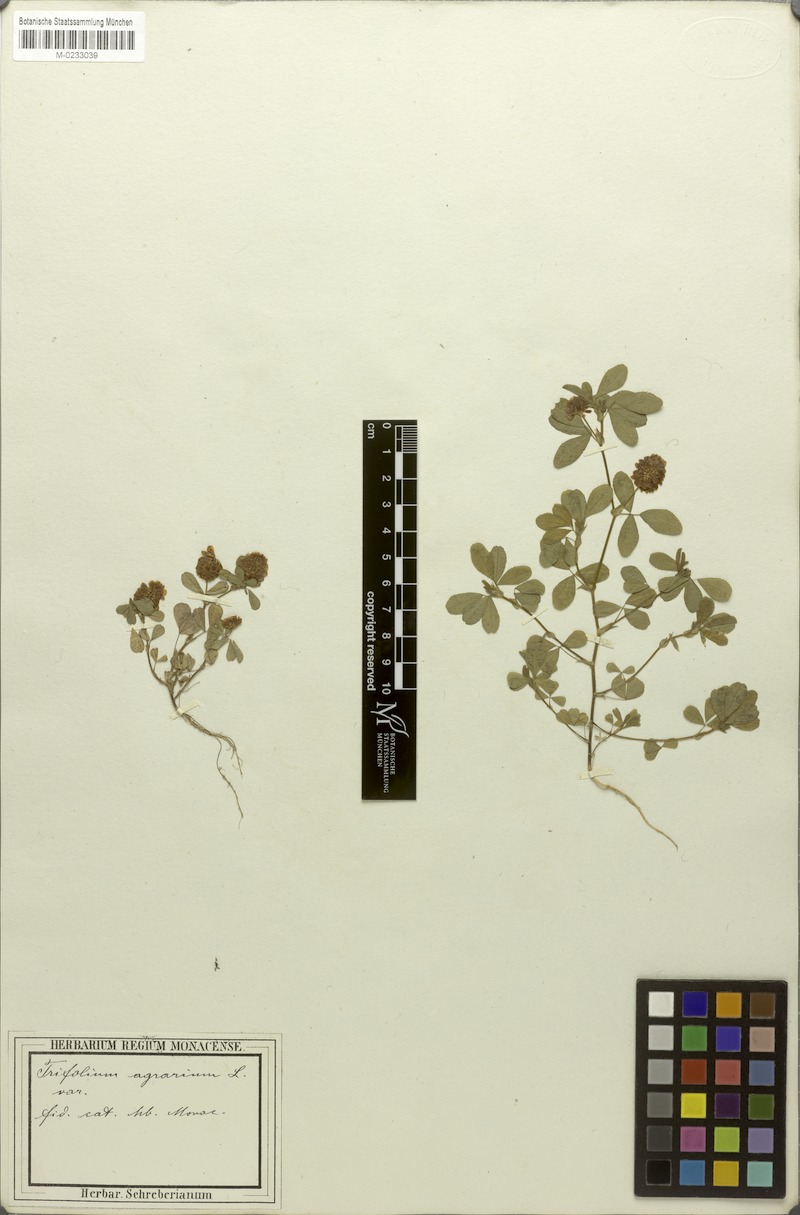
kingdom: Plantae
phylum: Tracheophyta
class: Magnoliopsida
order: Fabales
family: Fabaceae
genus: Trifolium
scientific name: Trifolium campestre
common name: Field clover
